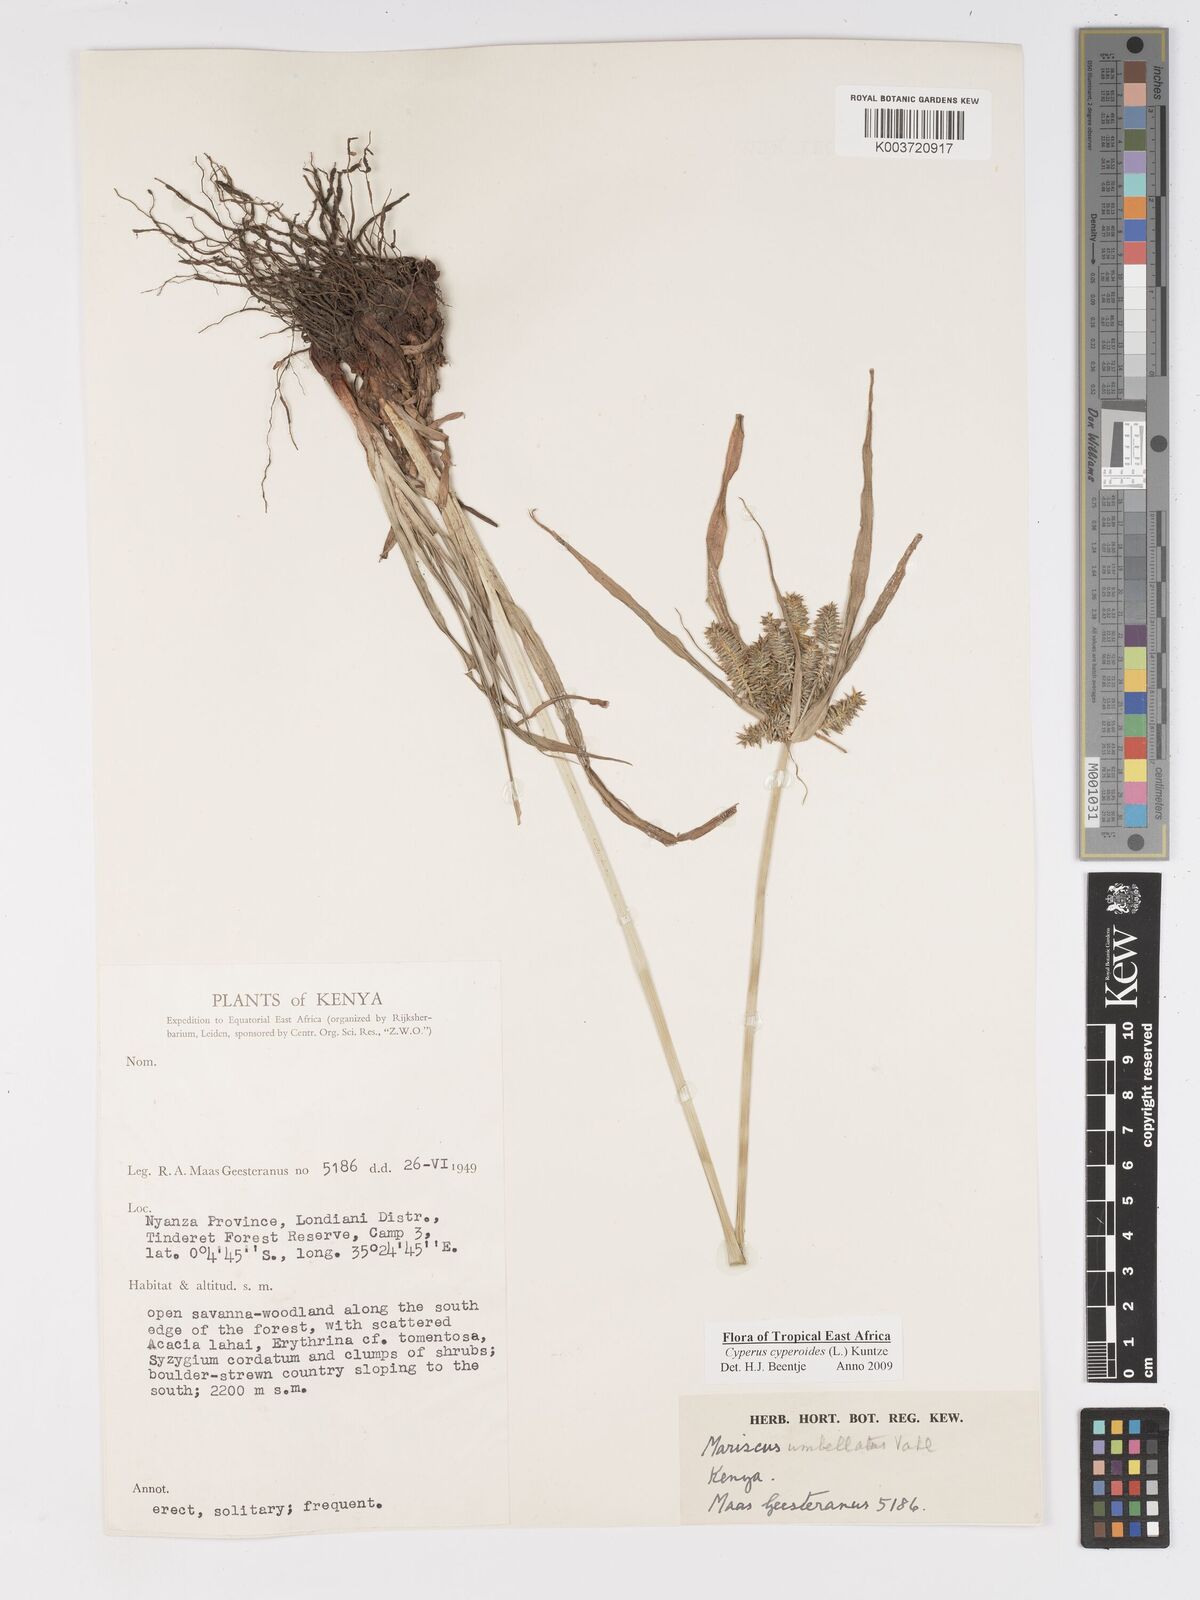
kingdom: Plantae
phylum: Tracheophyta
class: Liliopsida
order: Poales
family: Cyperaceae
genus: Cyperus
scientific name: Cyperus cyperoides
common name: Pacific island flat sedge
